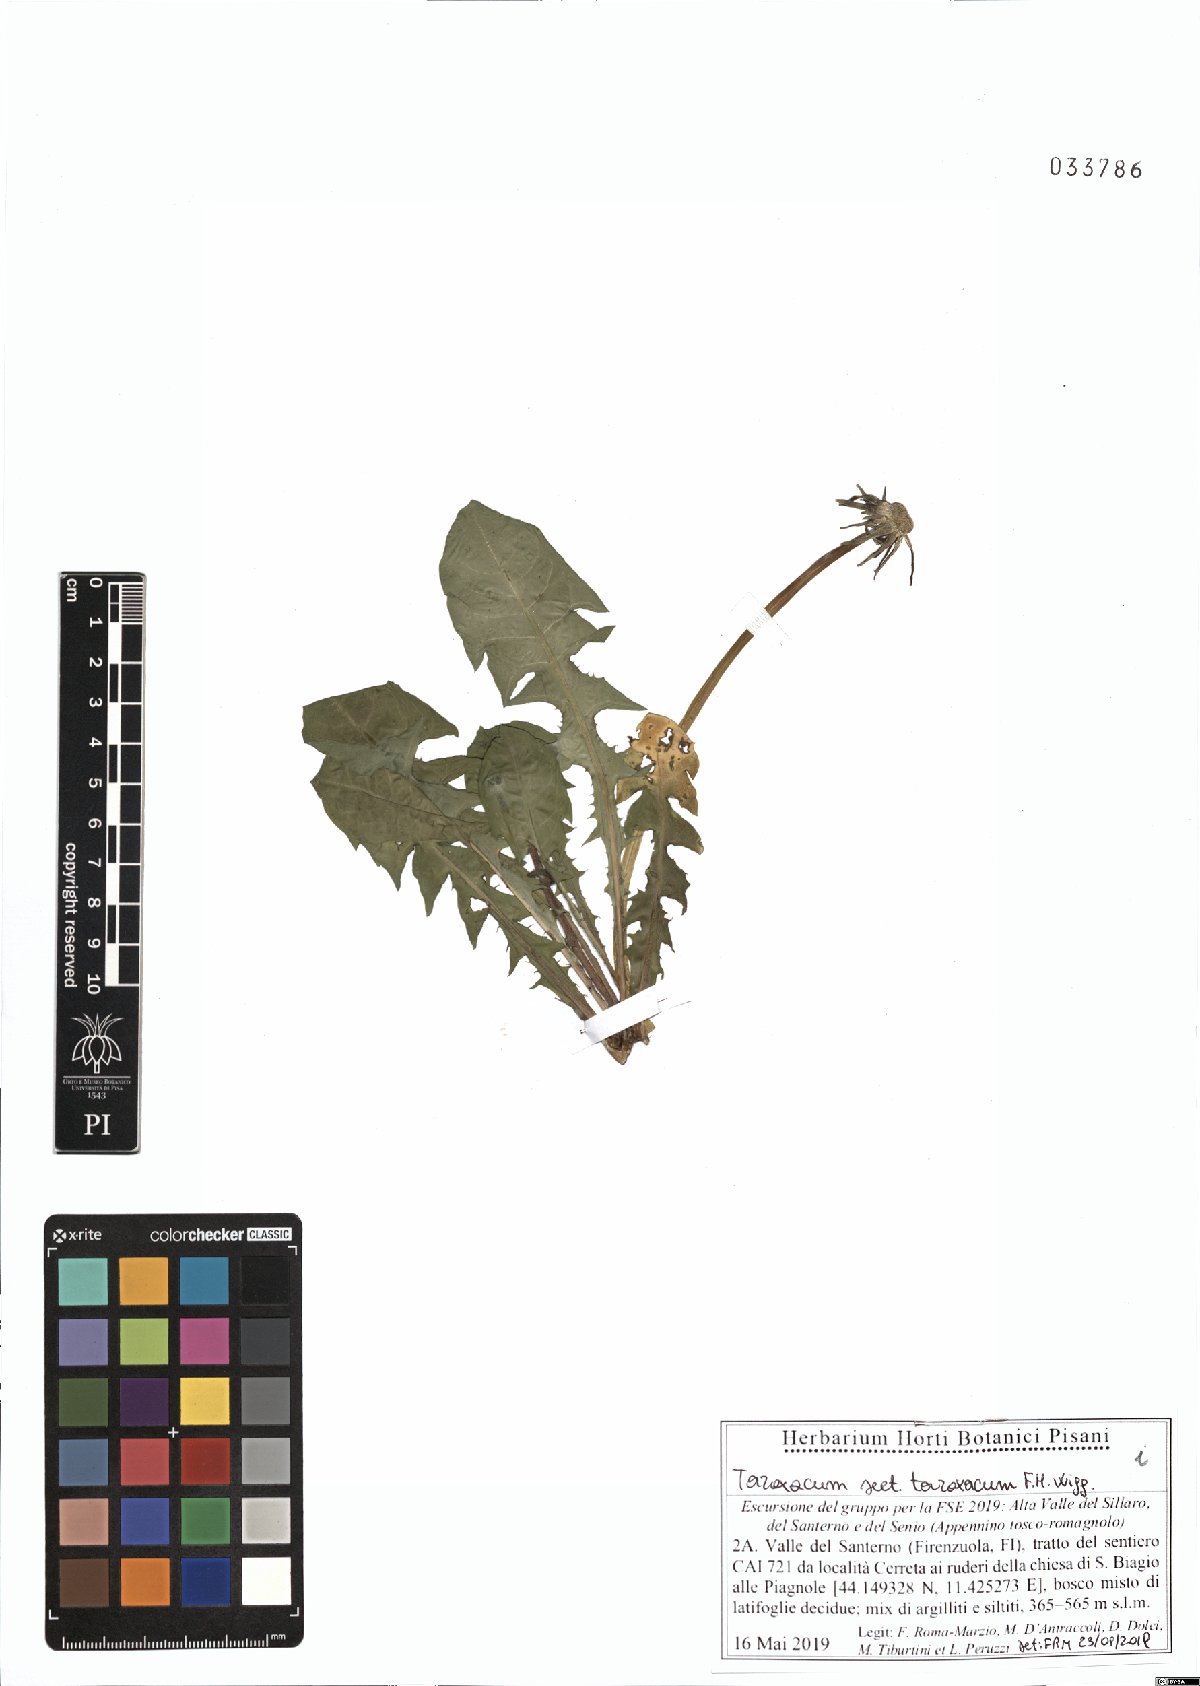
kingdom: Plantae
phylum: Tracheophyta
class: Magnoliopsida
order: Asterales
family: Asteraceae
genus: Taraxacum
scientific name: Taraxacum officinale
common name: Common dandelion
